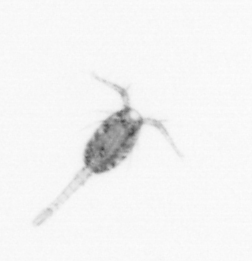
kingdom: Animalia
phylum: Arthropoda
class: Copepoda
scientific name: Copepoda
